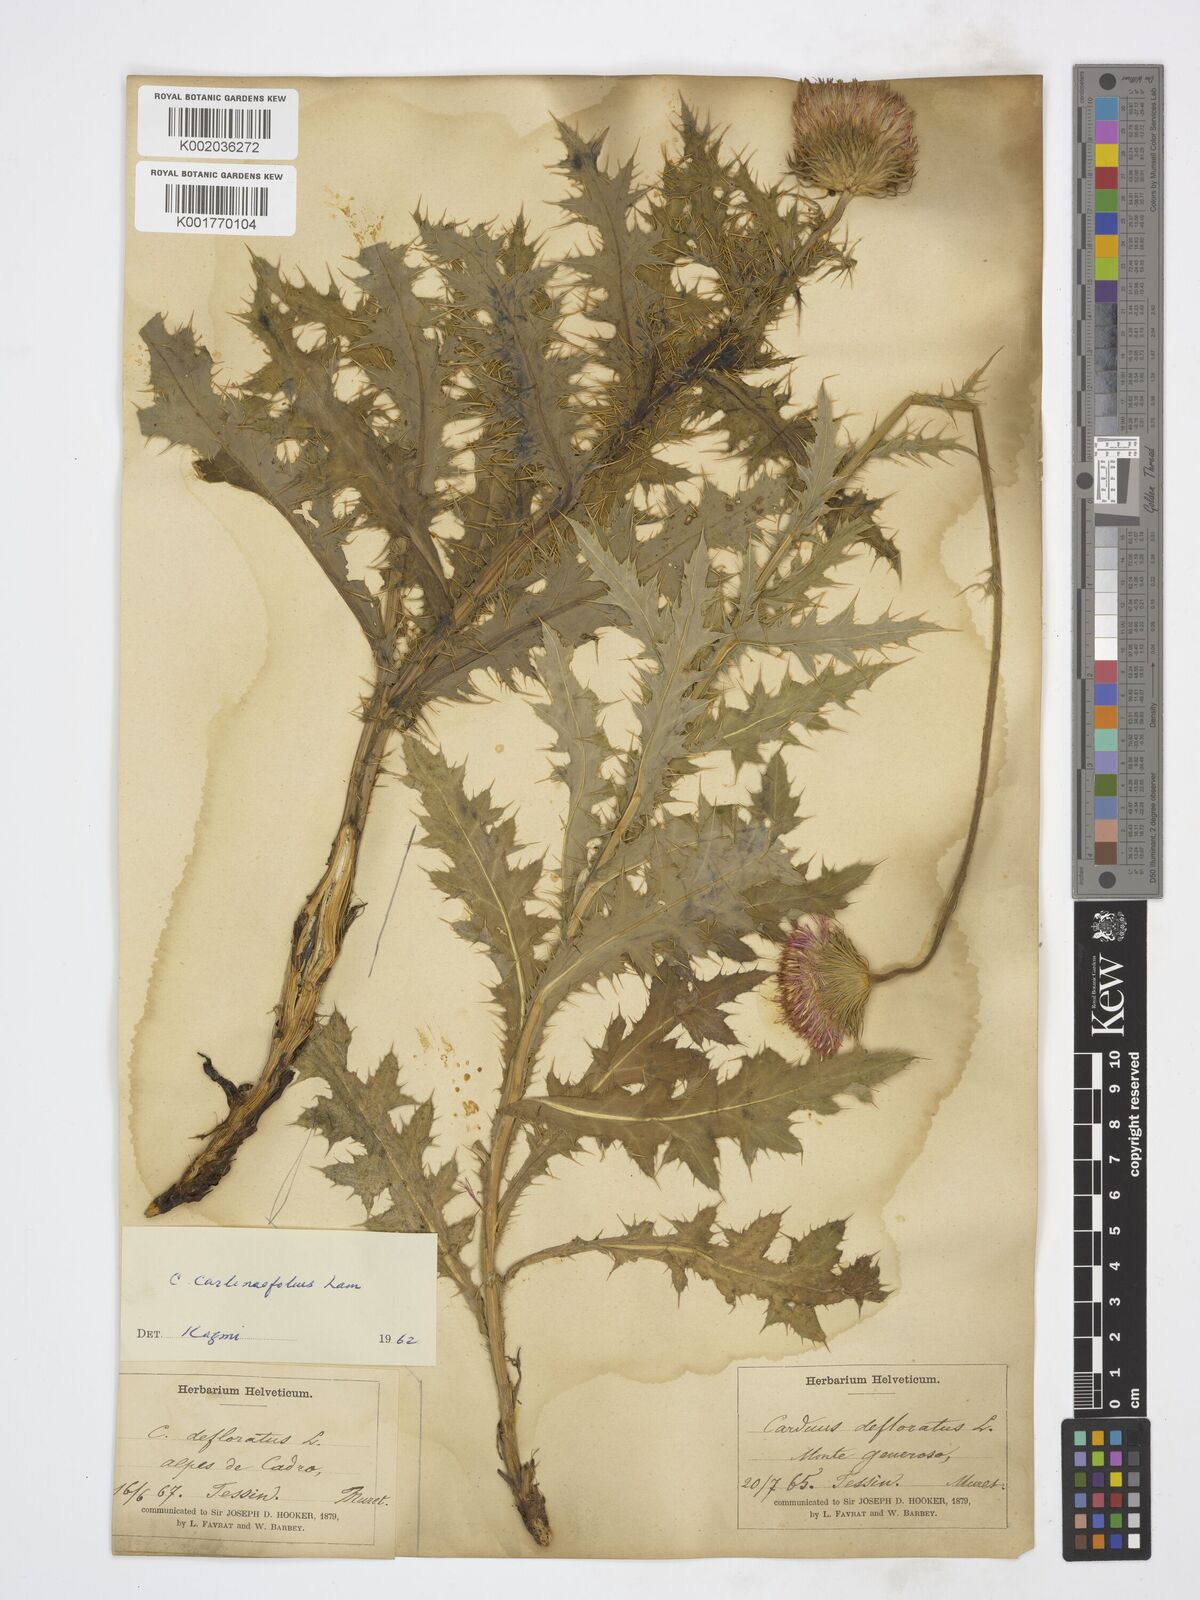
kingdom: Plantae
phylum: Tracheophyta
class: Magnoliopsida
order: Asterales
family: Asteraceae
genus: Carduus
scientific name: Carduus defloratus
